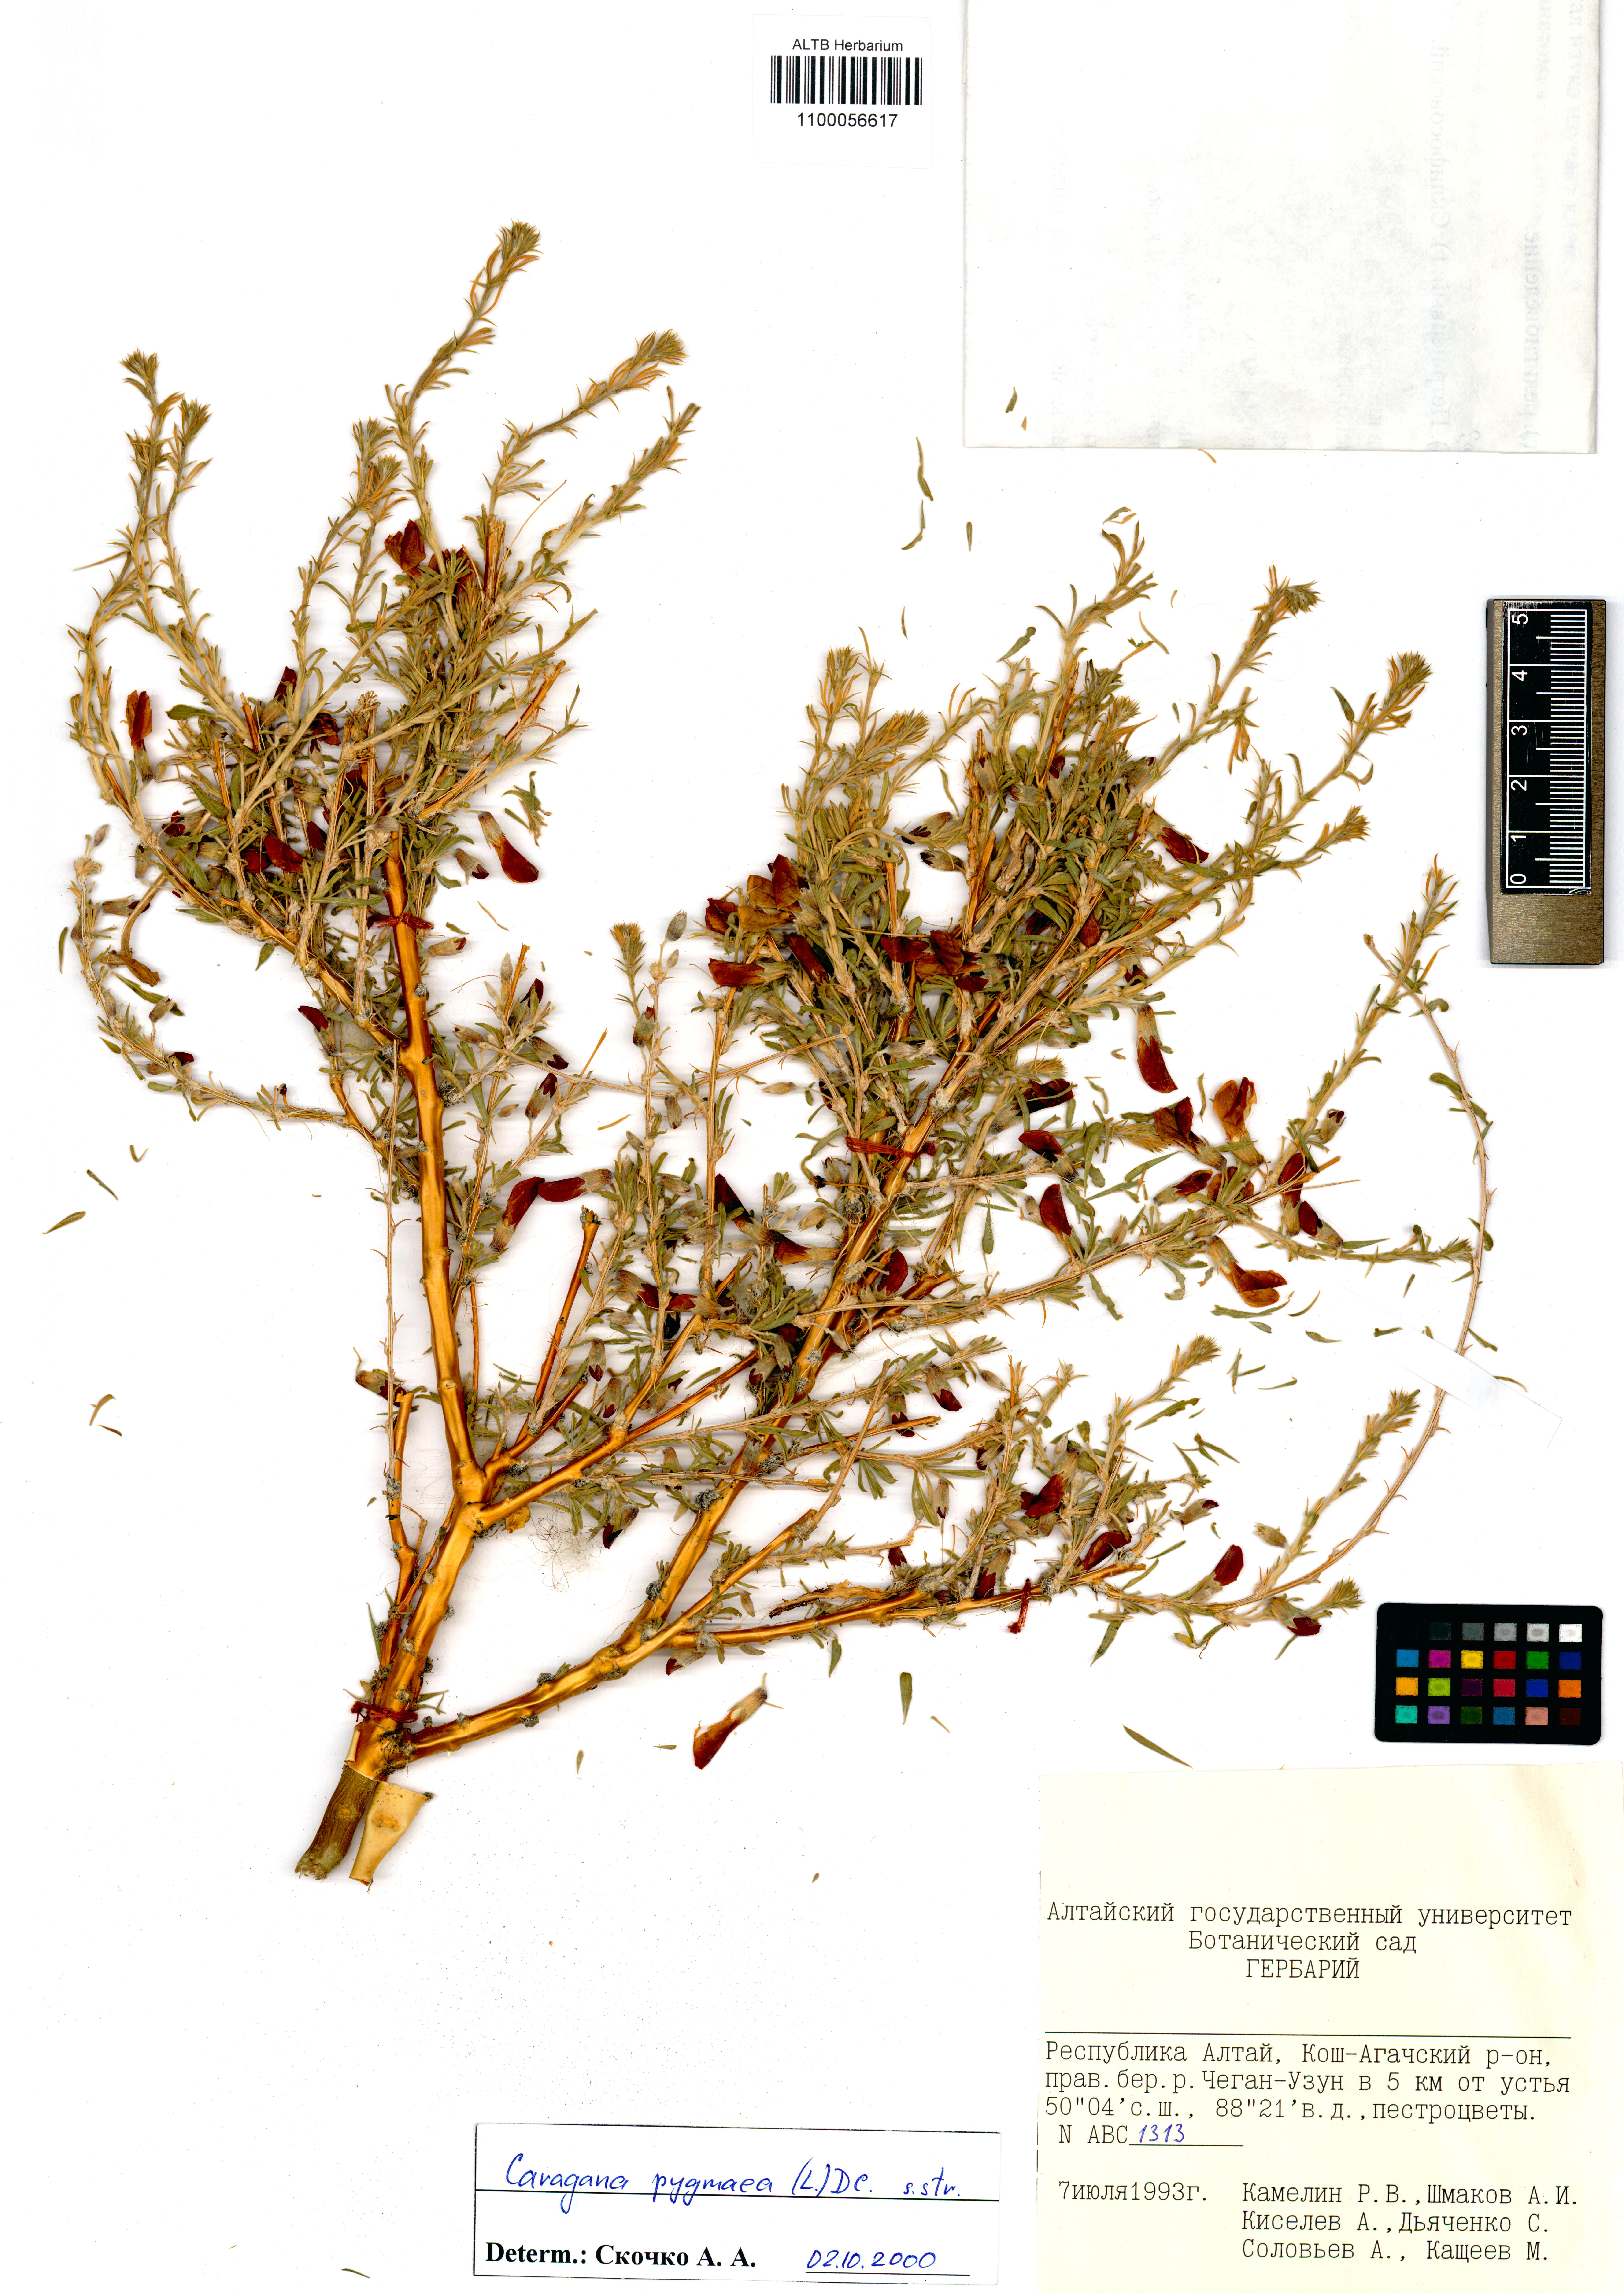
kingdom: Plantae
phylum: Tracheophyta
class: Magnoliopsida
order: Fabales
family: Fabaceae
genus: Caragana
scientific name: Caragana pygmaea
